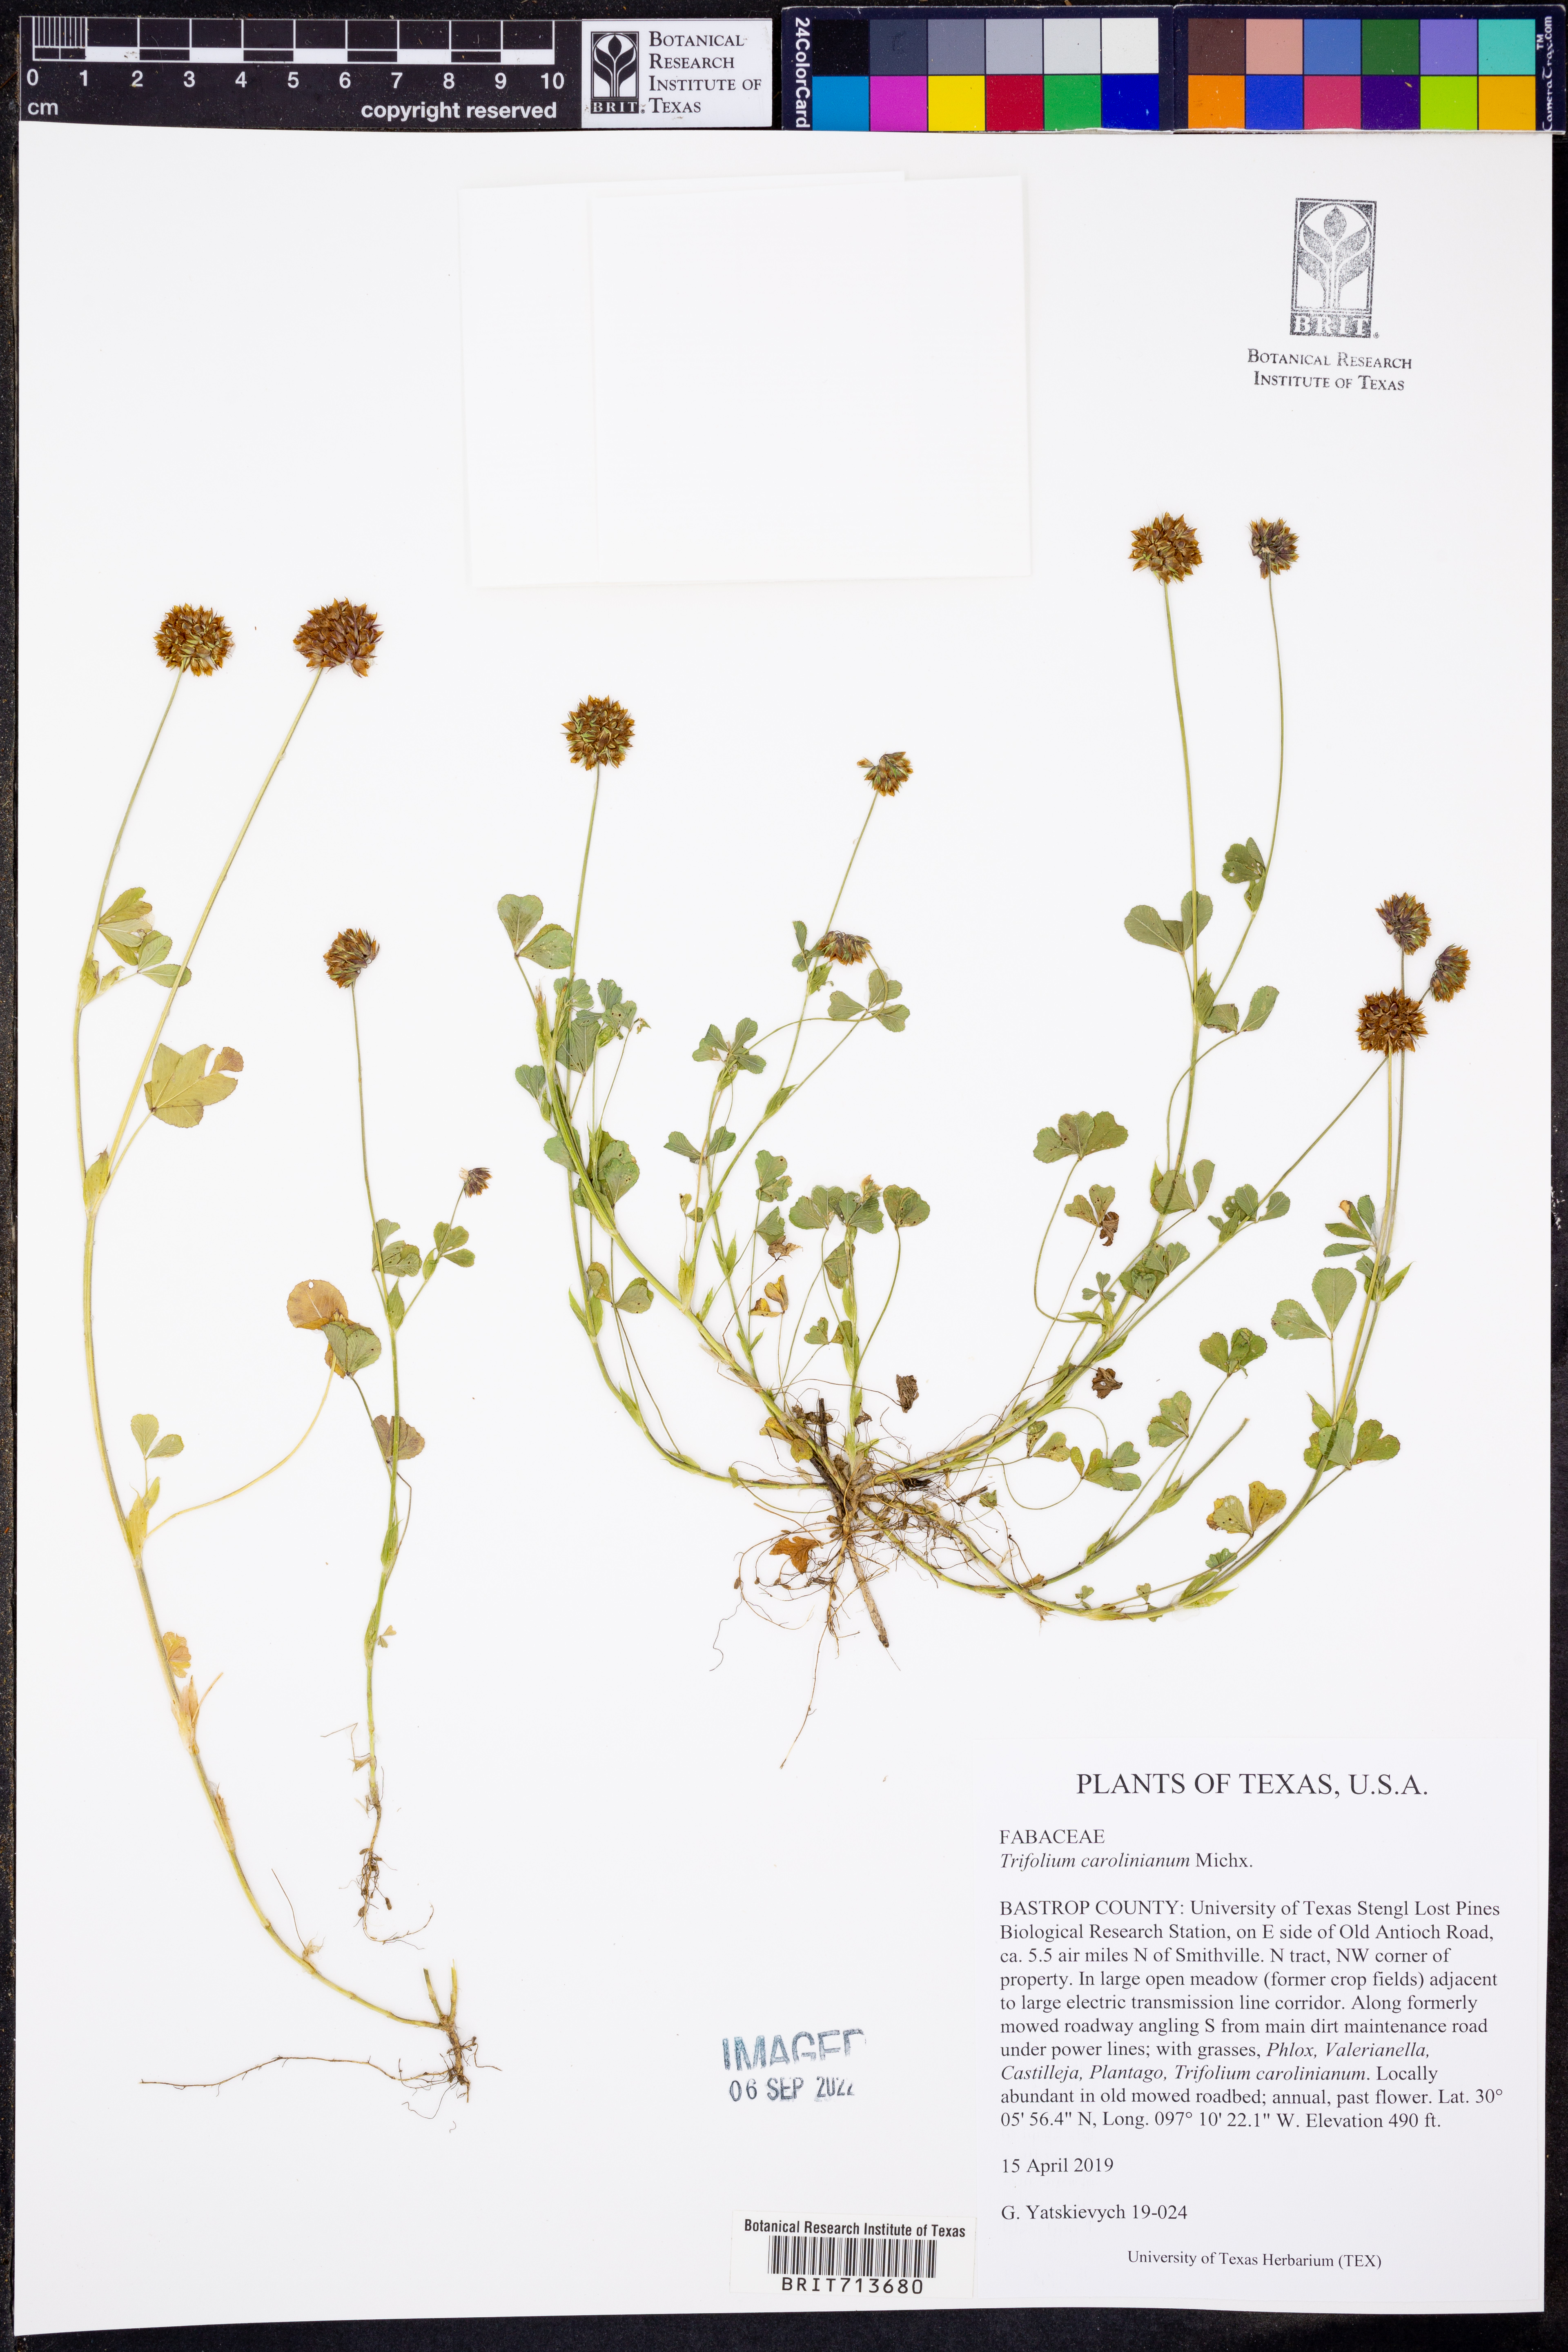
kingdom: Plantae
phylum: Tracheophyta
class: Magnoliopsida
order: Fabales
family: Fabaceae
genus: Trifolium
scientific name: Trifolium carolinianum
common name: Wild white clover
